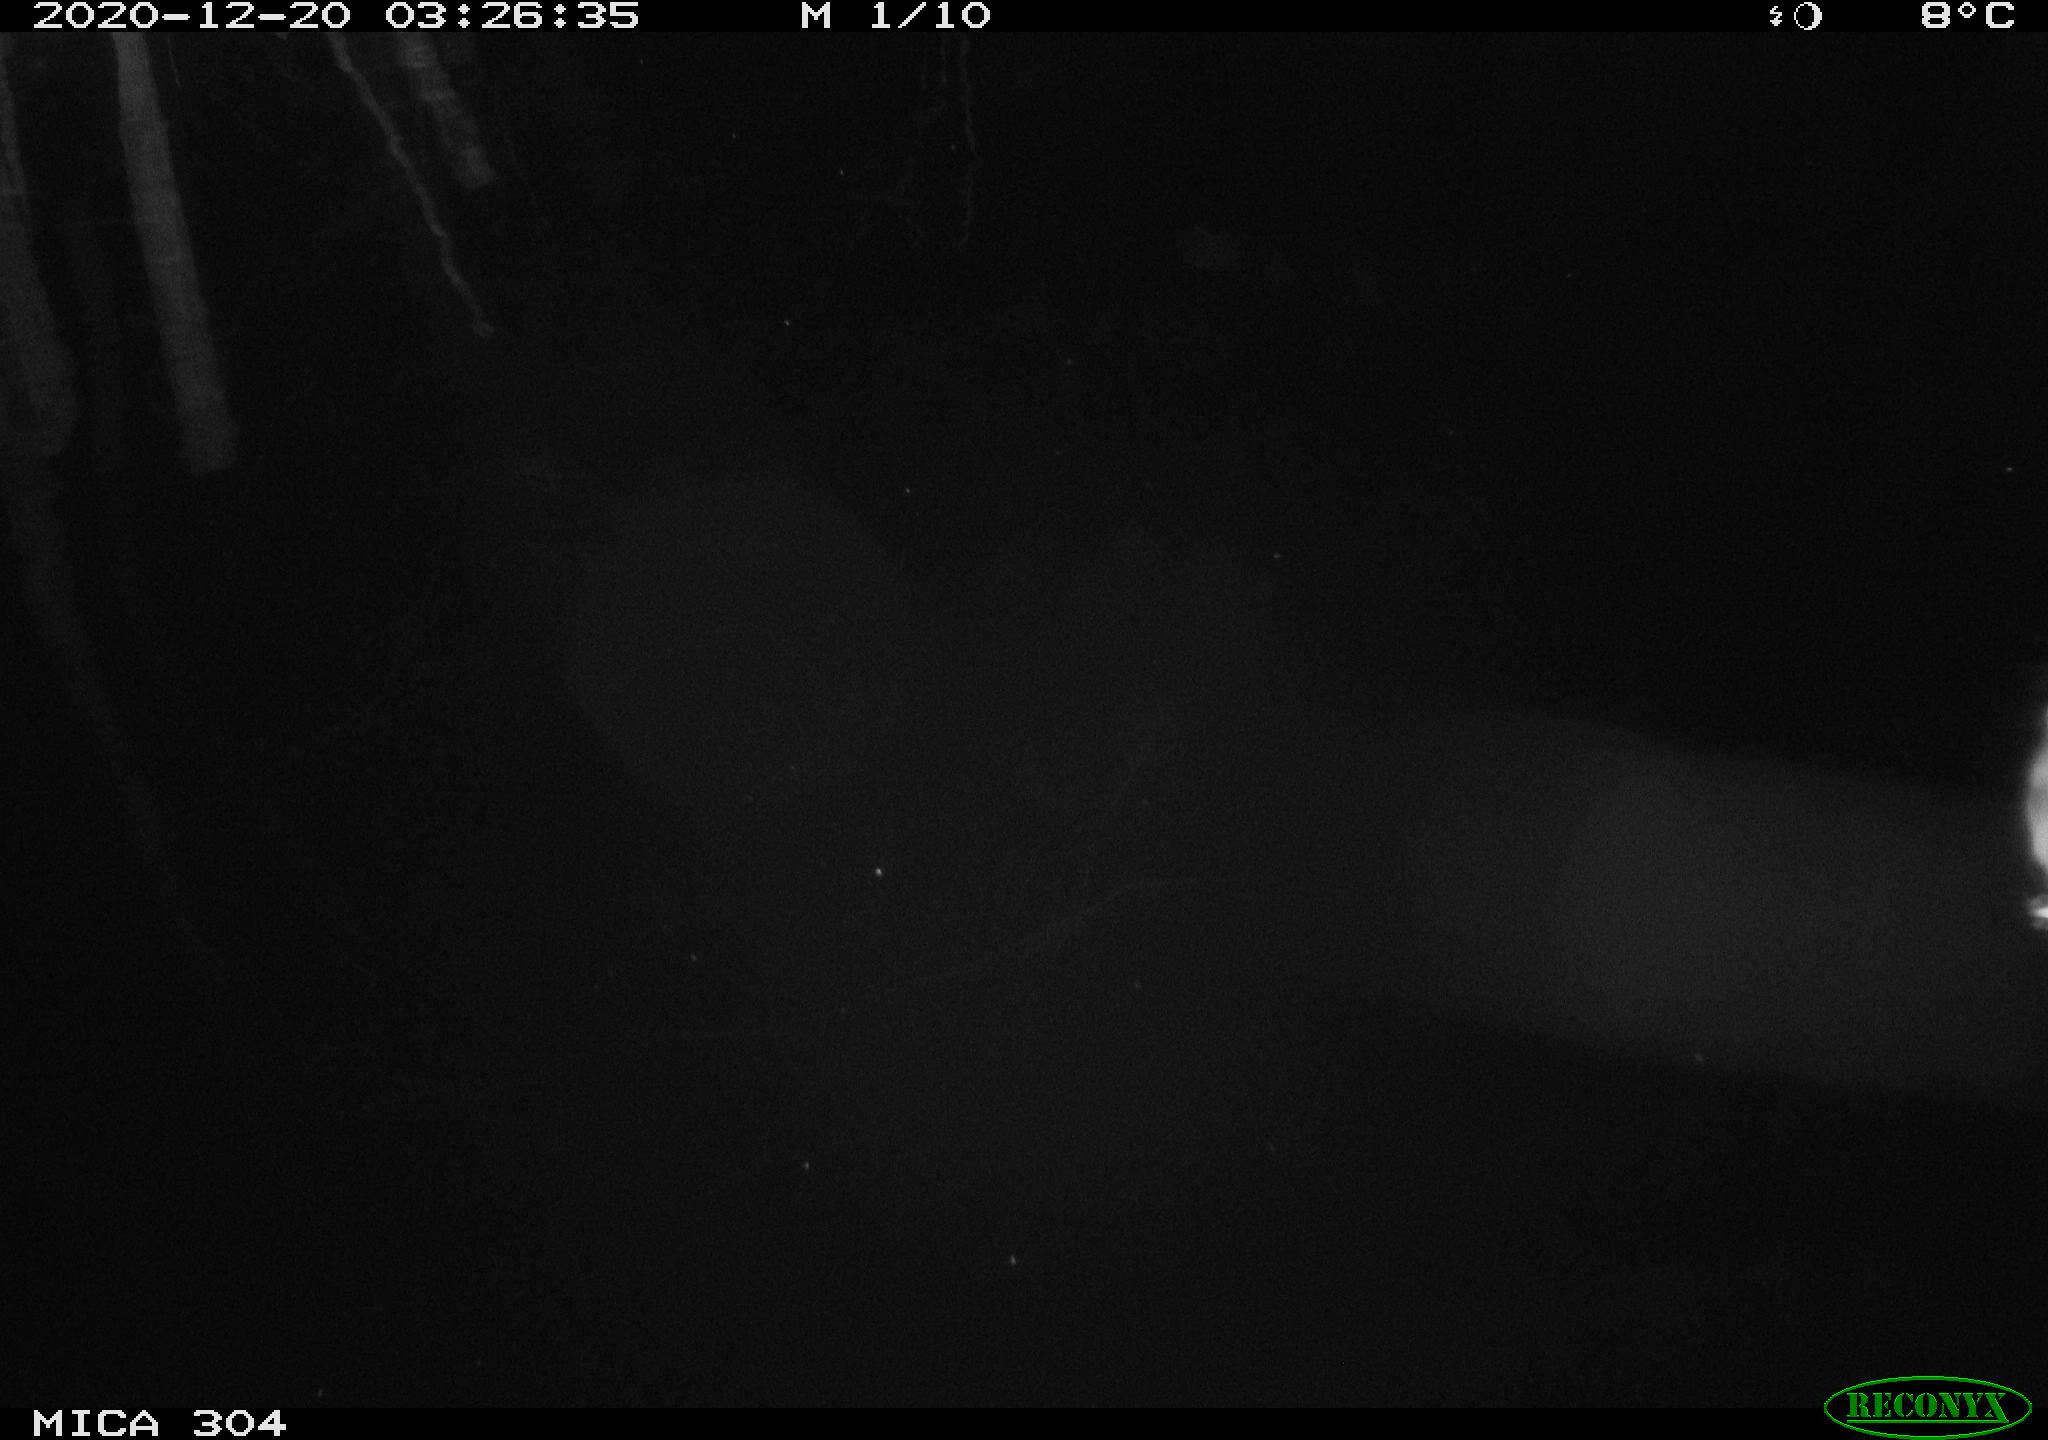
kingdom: Animalia
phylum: Chordata
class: Mammalia
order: Rodentia
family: Muridae
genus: Rattus
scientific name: Rattus norvegicus
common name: Brown rat
